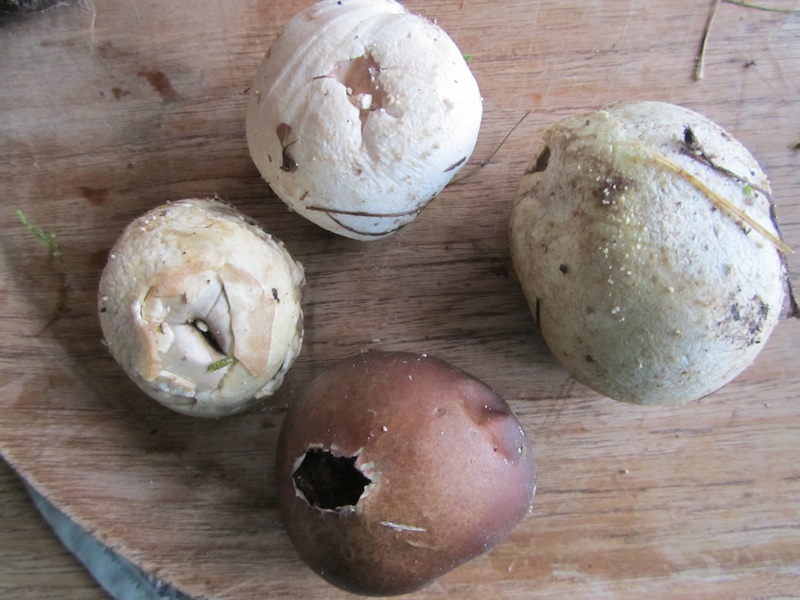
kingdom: Fungi
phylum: Basidiomycota
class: Agaricomycetes
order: Agaricales
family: Lycoperdaceae
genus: Bovista
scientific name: Bovista nigrescens
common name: sortagtig bovist
